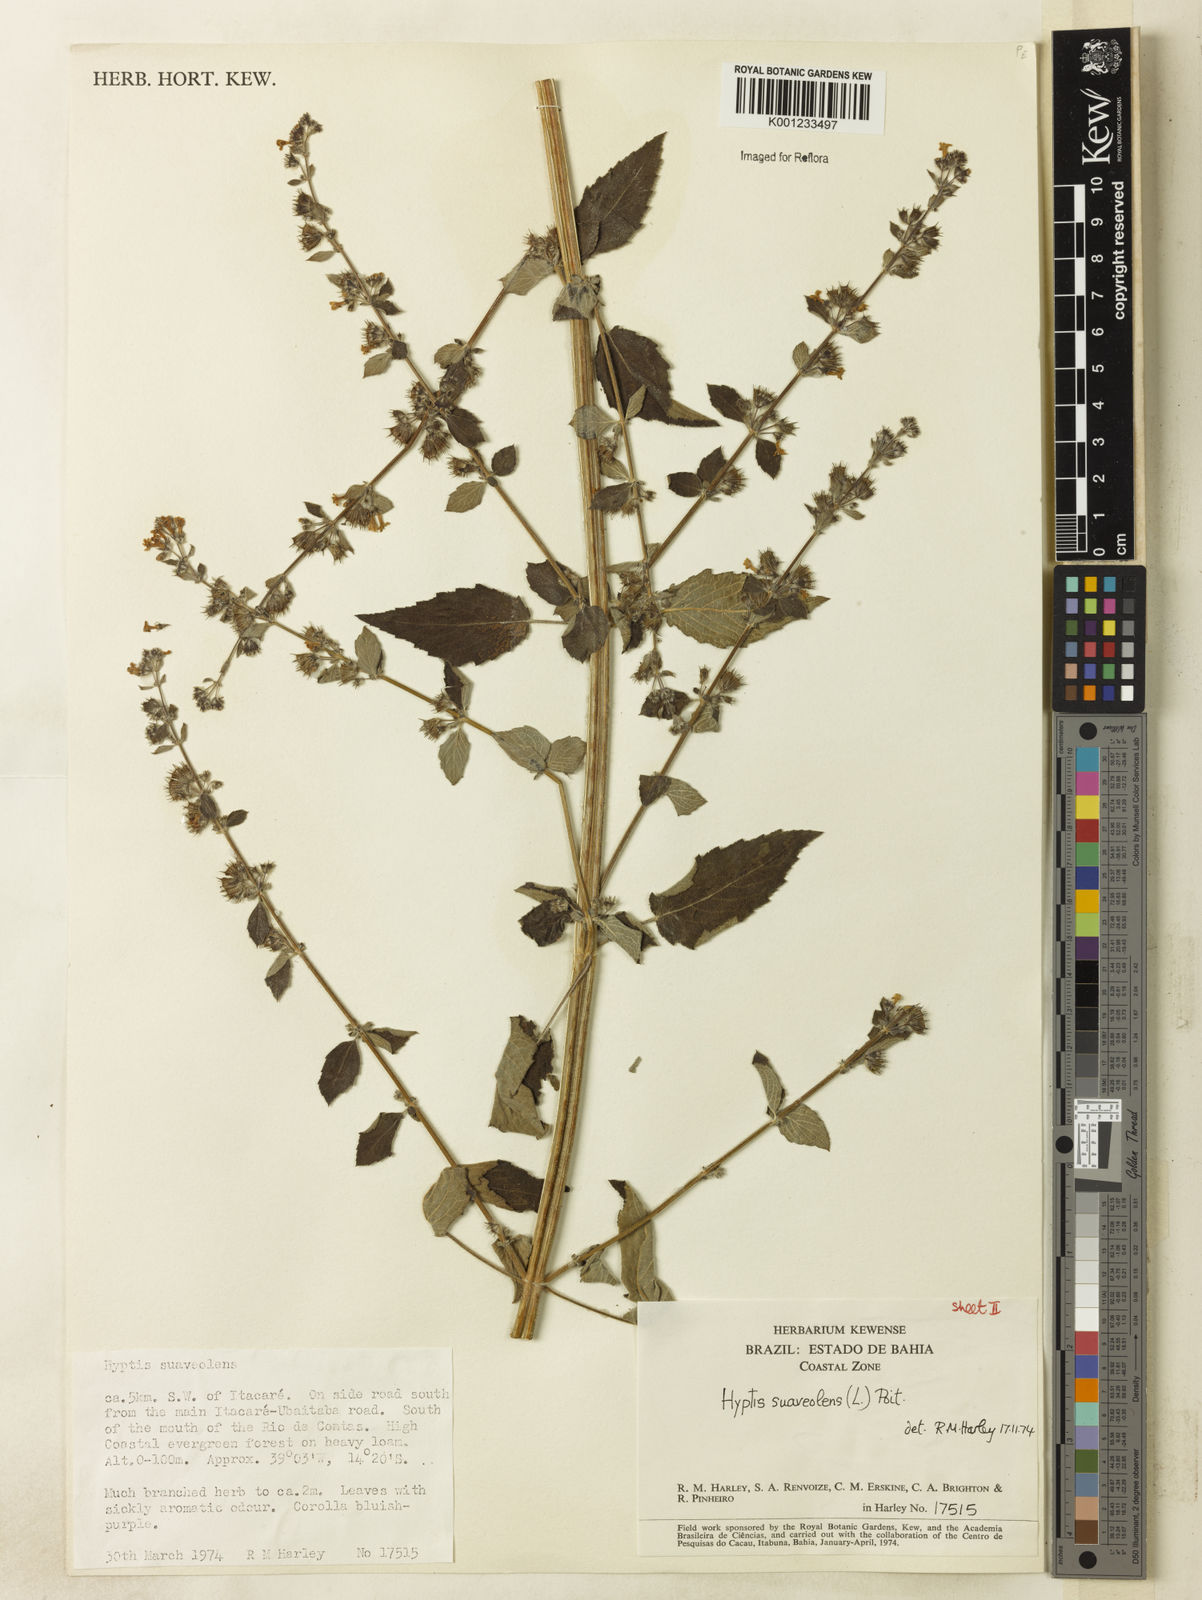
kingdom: Plantae
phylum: Tracheophyta
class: Magnoliopsida
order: Lamiales
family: Lamiaceae
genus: Mesosphaerum
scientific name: Mesosphaerum suaveolens
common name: Pignut
